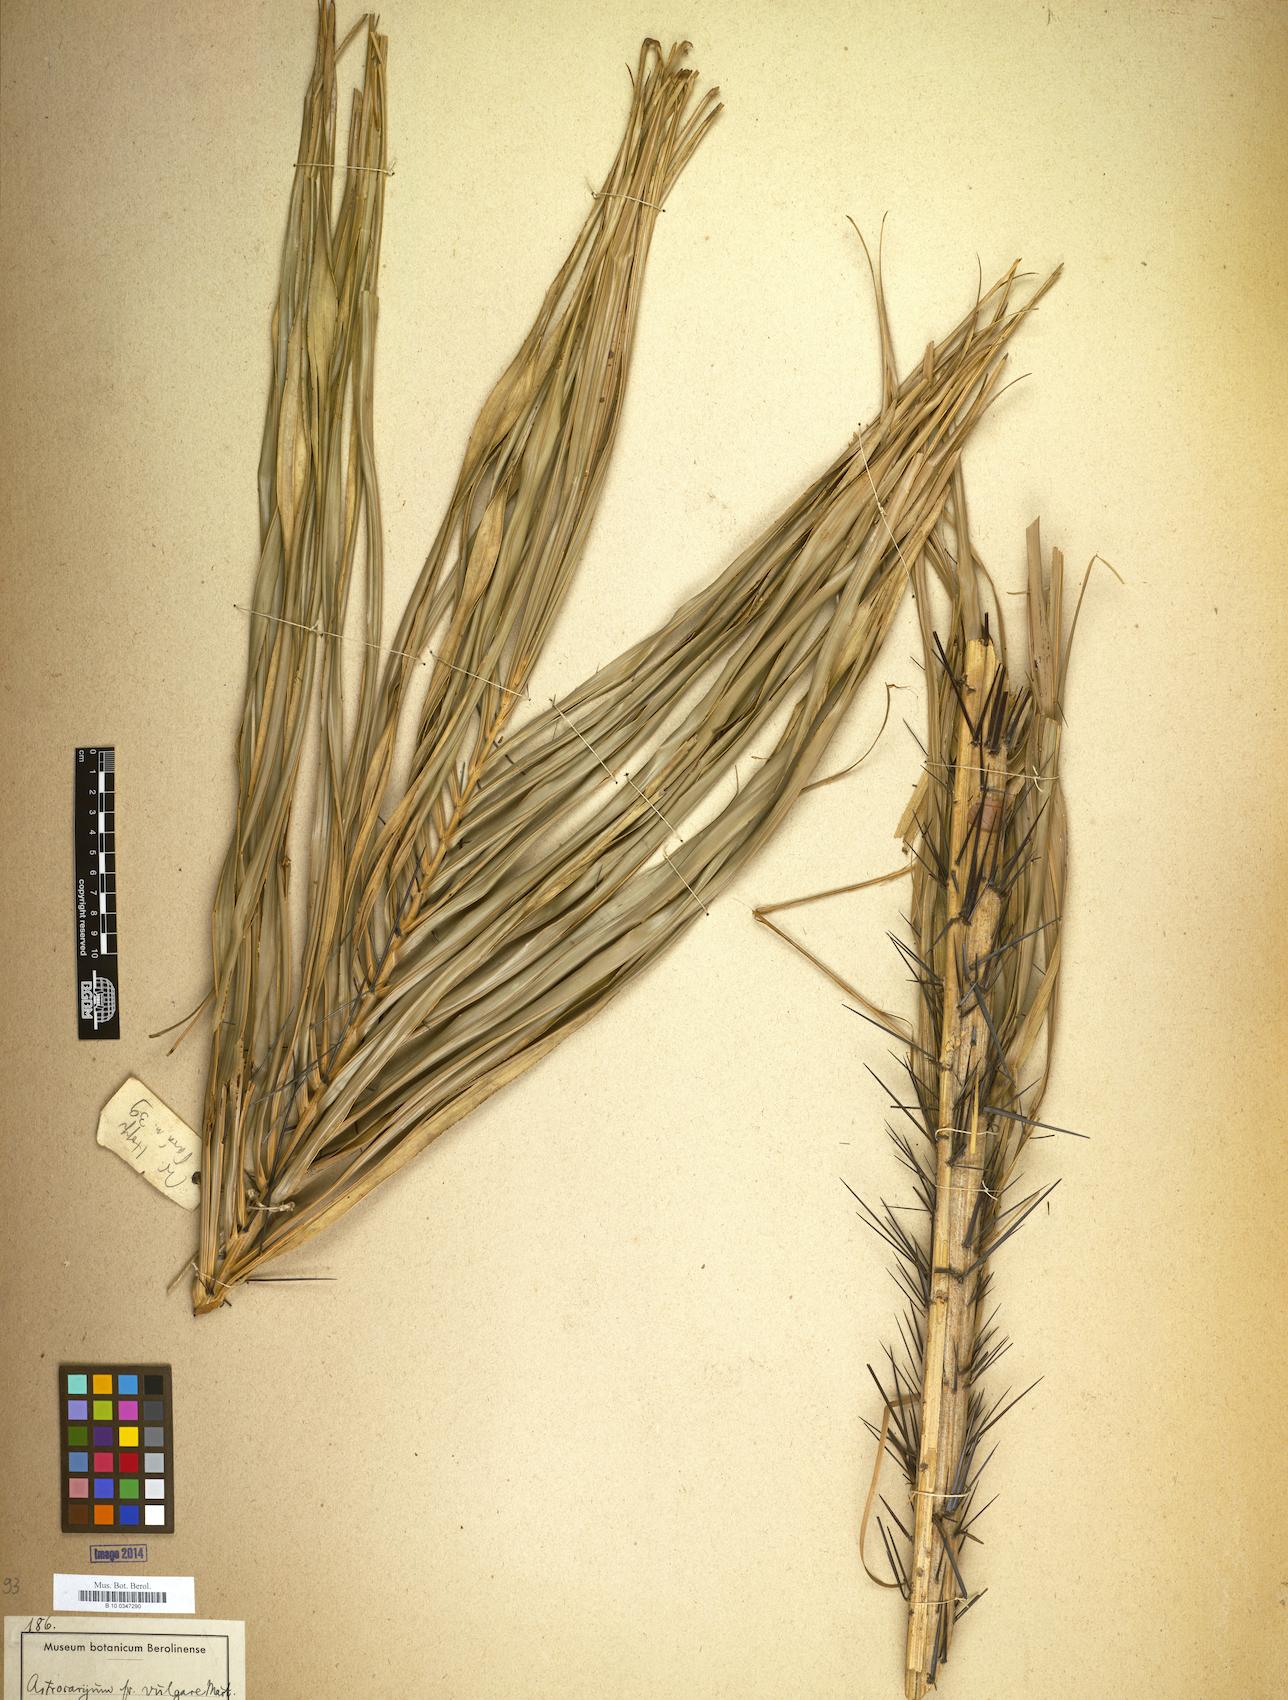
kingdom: Plantae
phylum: Tracheophyta
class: Liliopsida
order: Arecales
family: Arecaceae
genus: Astrocaryum
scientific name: Astrocaryum vulgare
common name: Tucum palm
